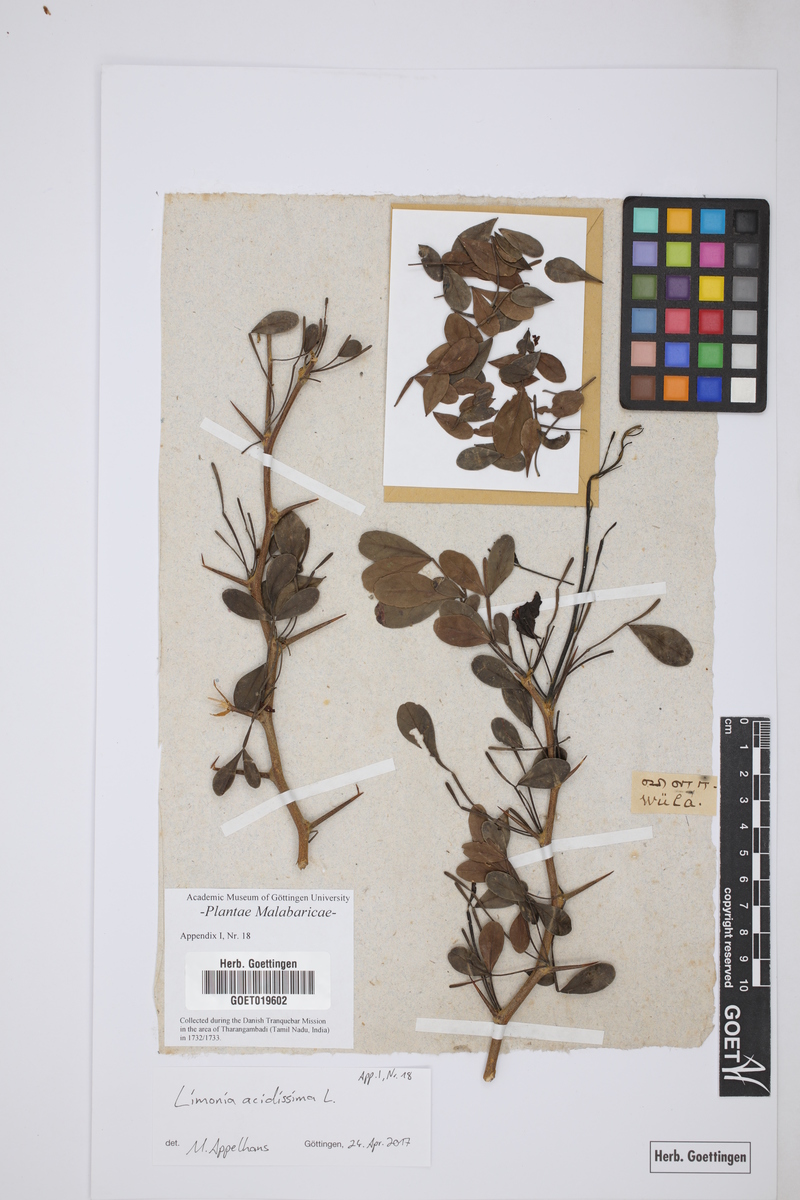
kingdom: Plantae
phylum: Tracheophyta
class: Magnoliopsida
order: Sapindales
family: Rutaceae
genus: Limonia
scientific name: Limonia acidissima
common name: Elephant apple
